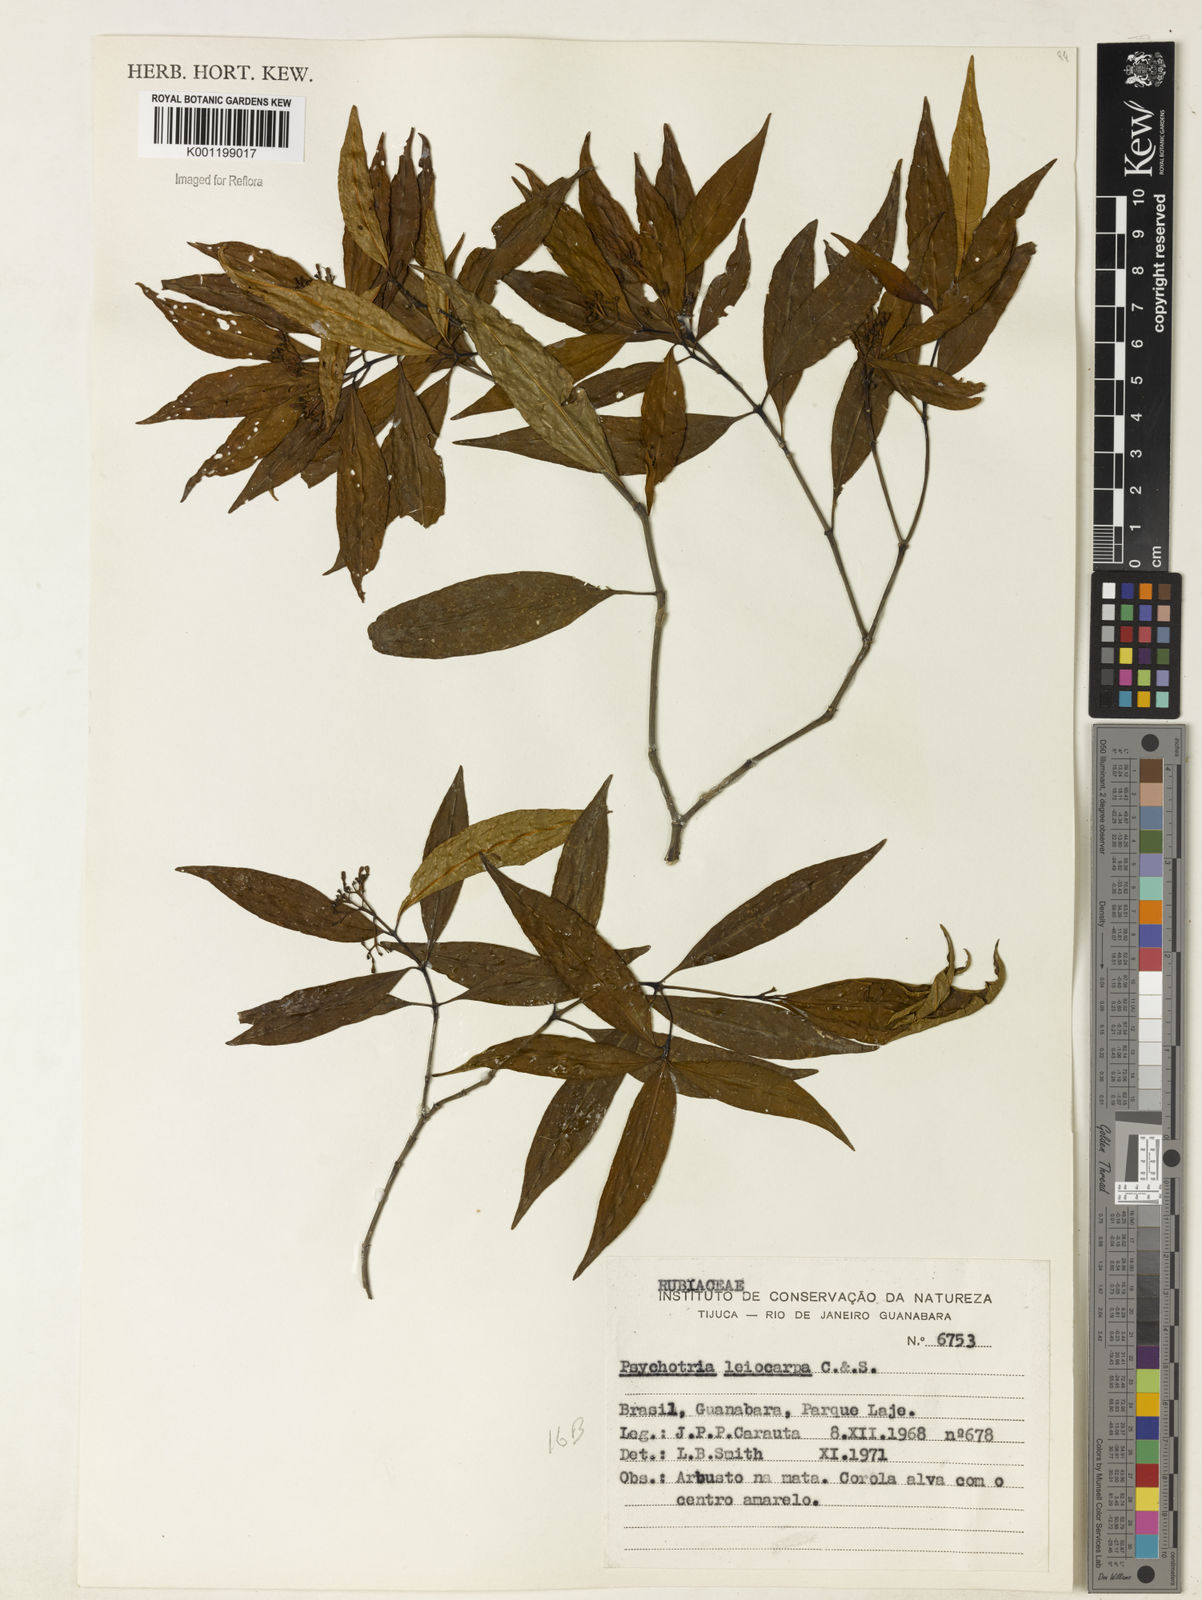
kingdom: Plantae
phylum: Tracheophyta
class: Magnoliopsida
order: Gentianales
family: Rubiaceae
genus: Psychotria
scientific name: Psychotria leiocarpa
